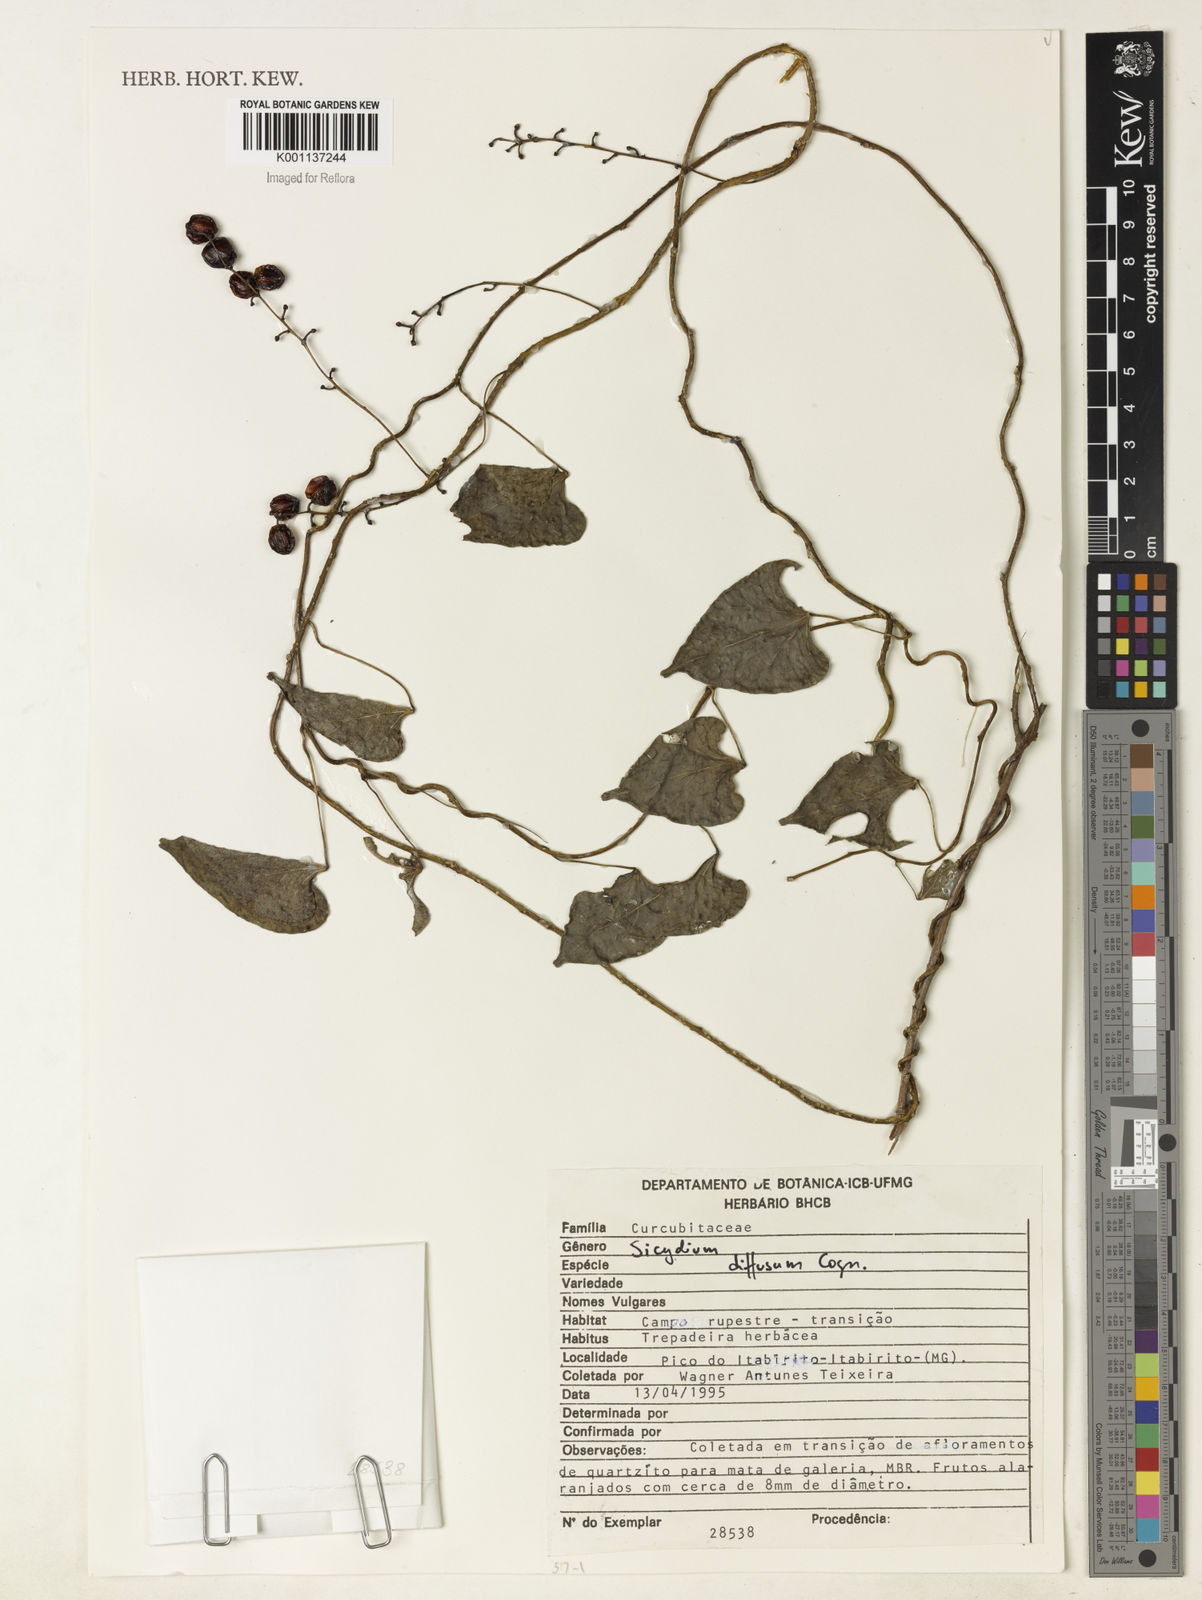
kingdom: Plantae
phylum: Tracheophyta
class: Magnoliopsida
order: Cucurbitales
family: Cucurbitaceae
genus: Sicydium
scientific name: Sicydium diffusum
